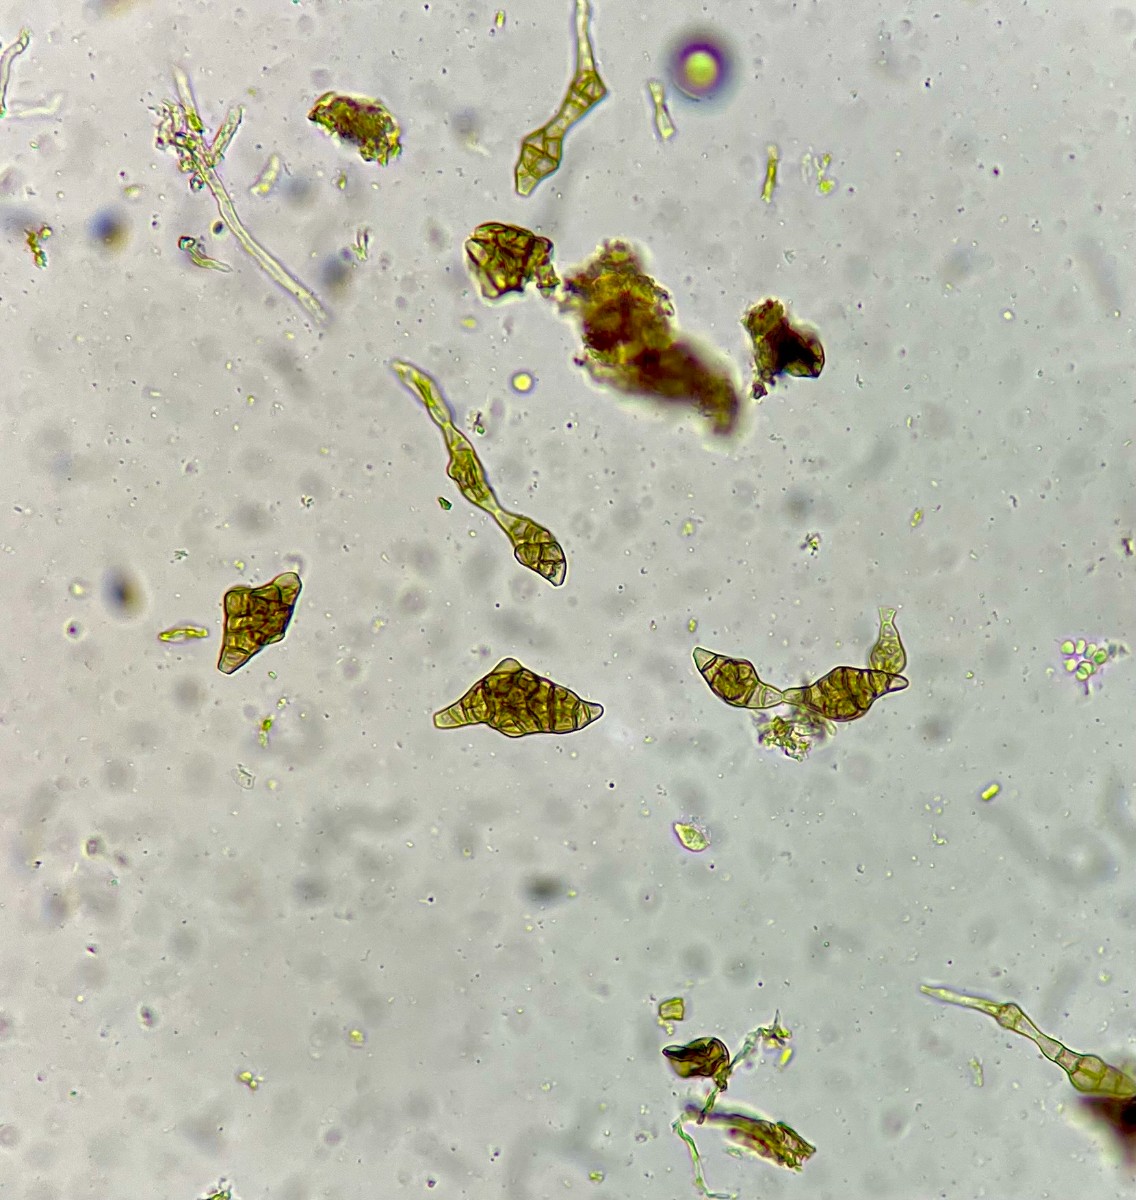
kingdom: Fungi
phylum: Ascomycota
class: Dothideomycetes
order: Pleosporales
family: Melanommataceae
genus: Phragmotrichum
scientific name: Phragmotrichum chailletii
